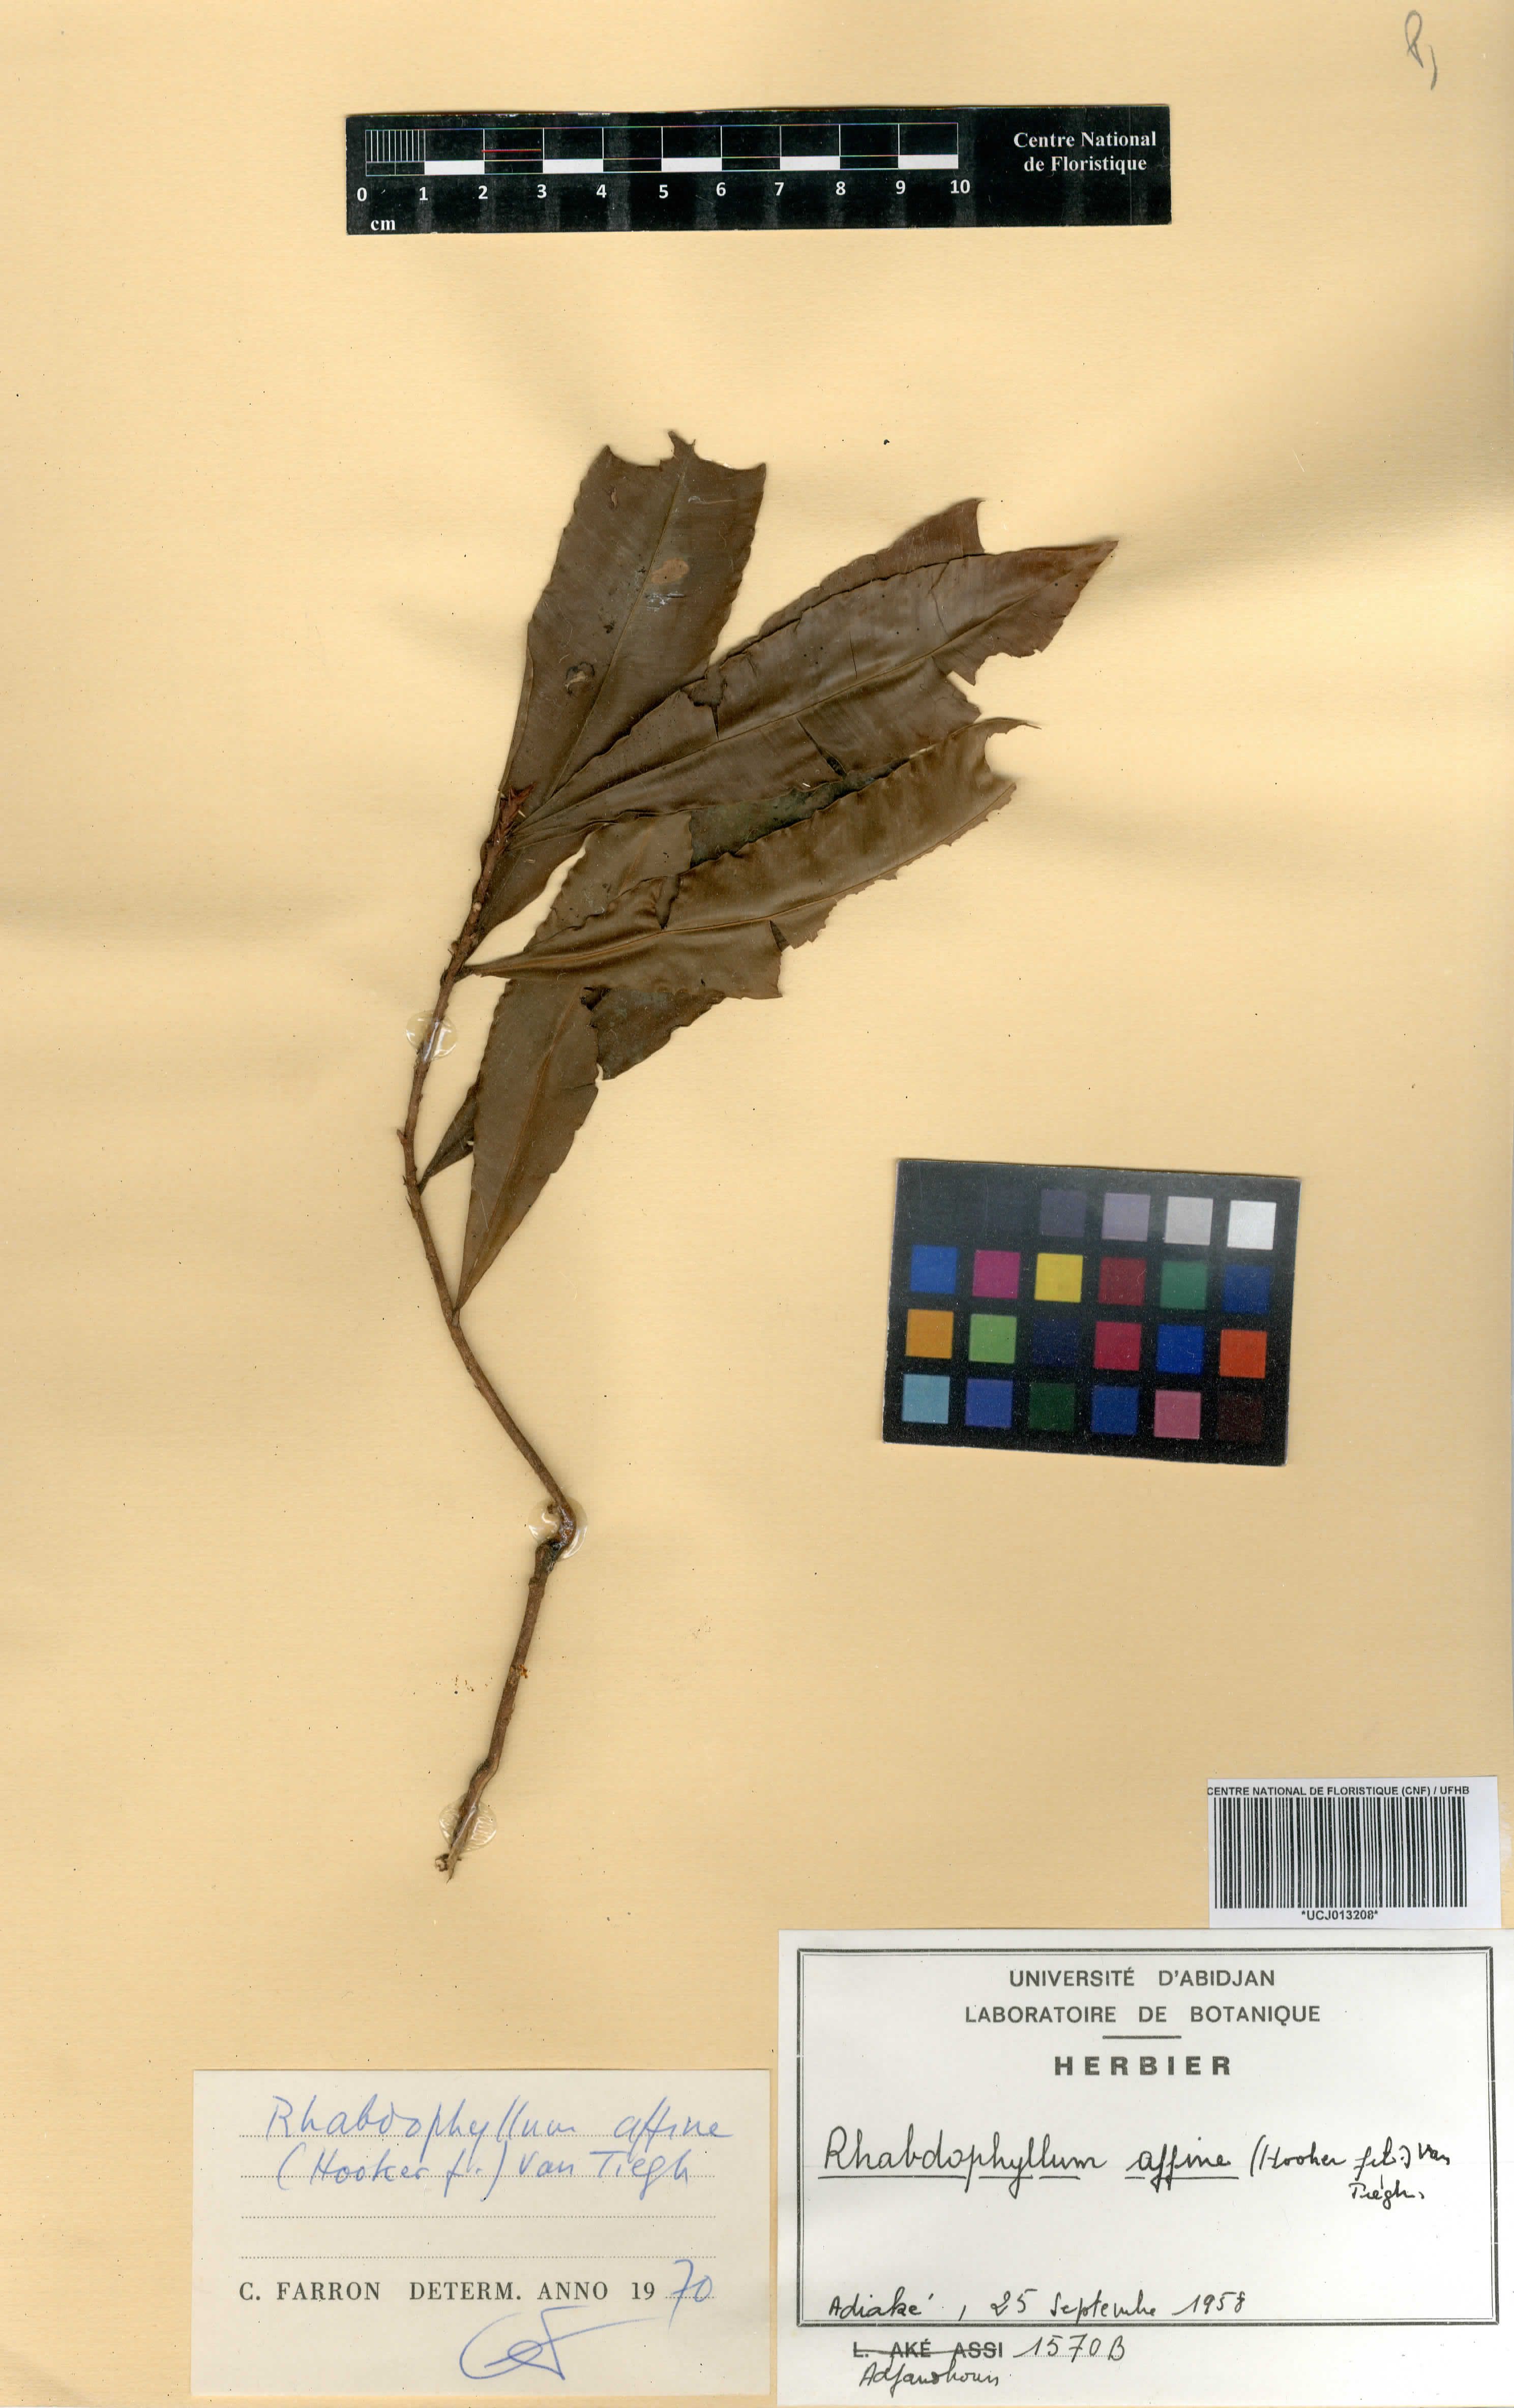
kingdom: Plantae
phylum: Tracheophyta
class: Magnoliopsida
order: Malpighiales
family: Ochnaceae
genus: Rhabdophyllum
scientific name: Rhabdophyllum affine
